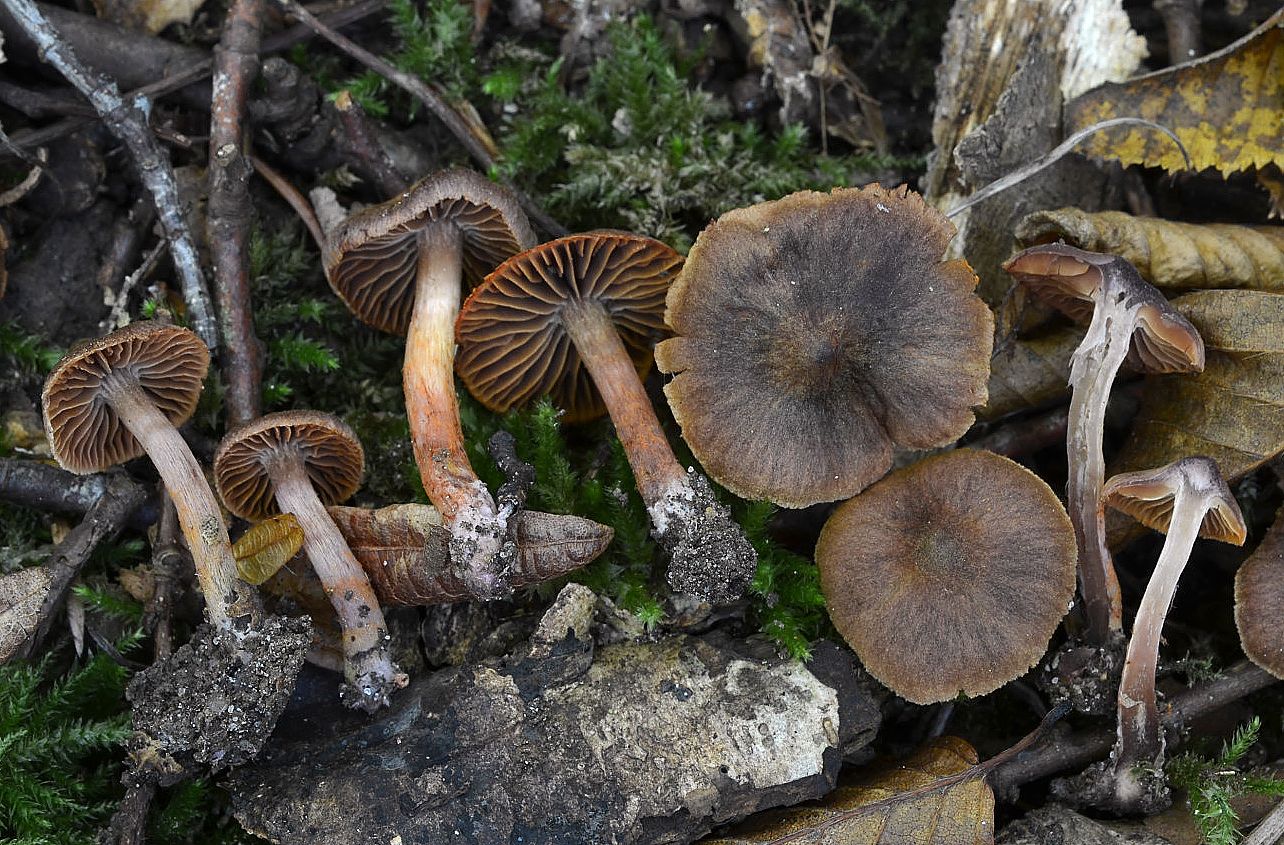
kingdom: Fungi
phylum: Basidiomycota
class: Agaricomycetes
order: Agaricales
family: Cortinariaceae
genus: Cortinarius
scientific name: Cortinarius anthracinus
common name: purpursort slørhat
